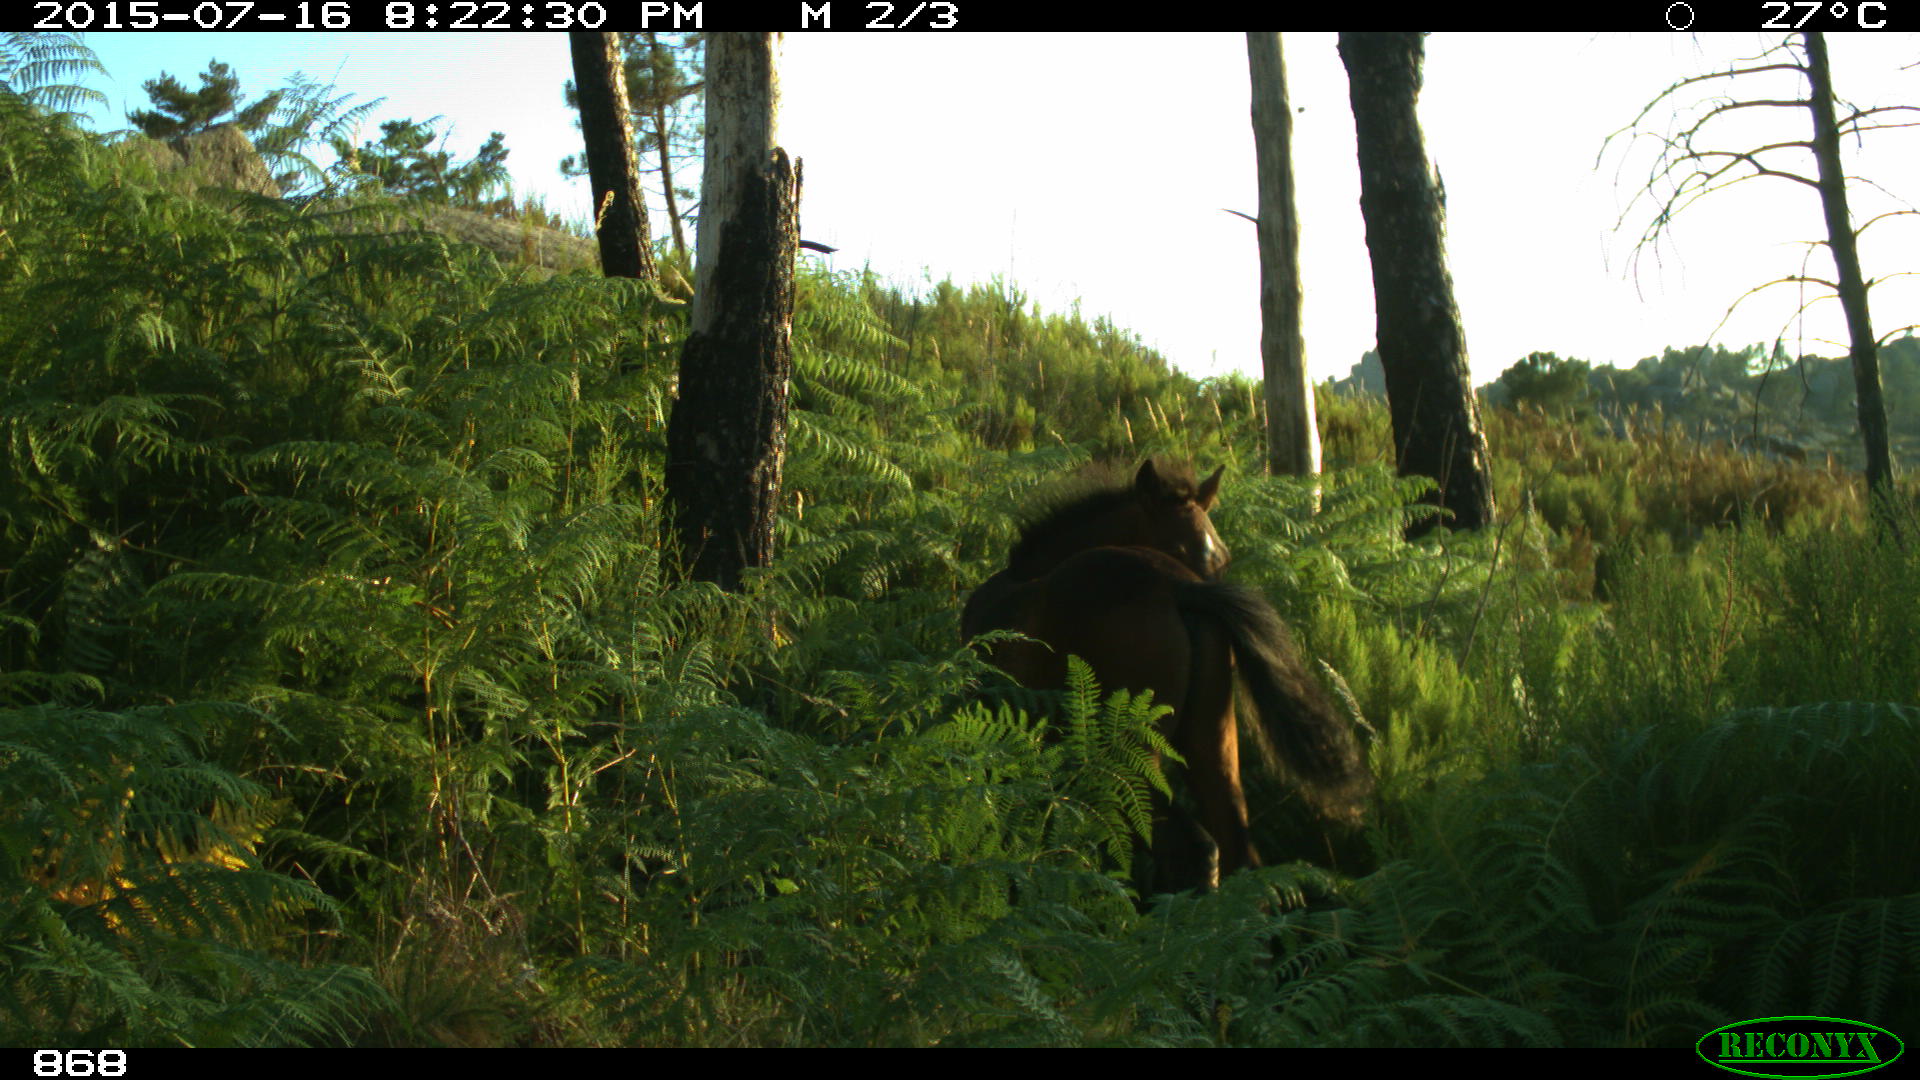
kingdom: Animalia
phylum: Chordata
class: Mammalia
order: Perissodactyla
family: Equidae
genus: Equus
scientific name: Equus caballus
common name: Horse
